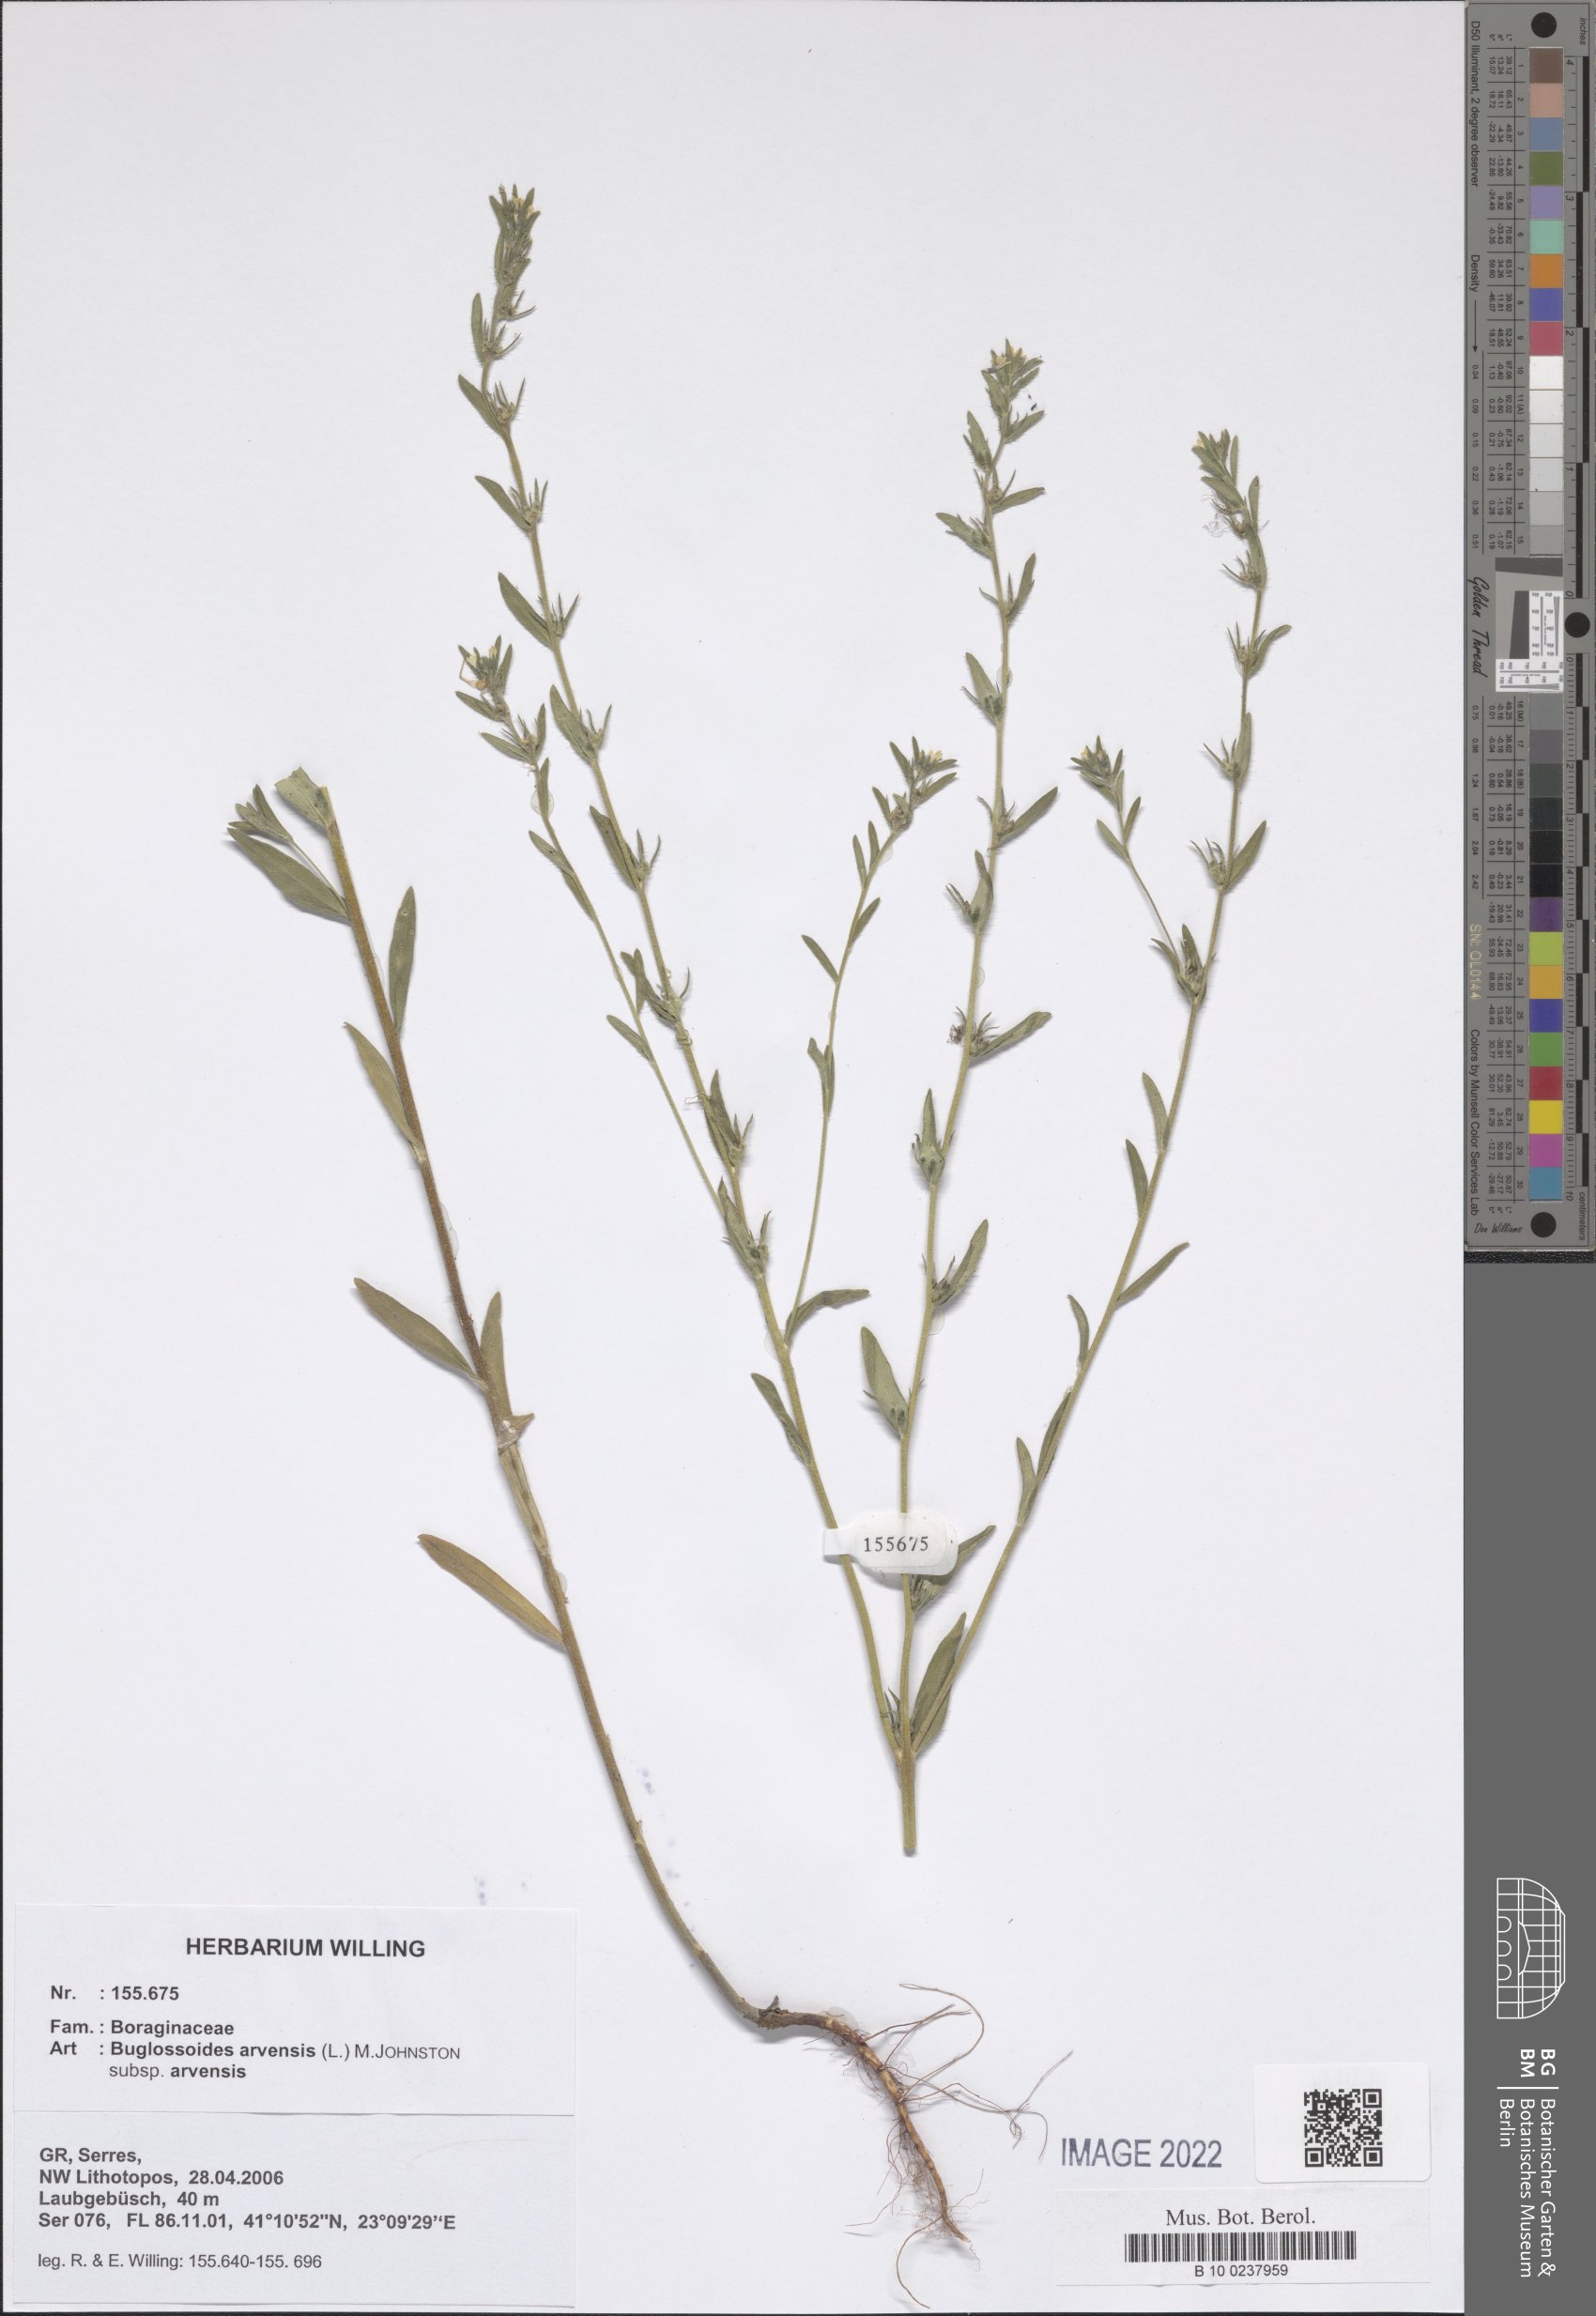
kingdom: Plantae
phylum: Tracheophyta
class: Magnoliopsida
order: Boraginales
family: Boraginaceae
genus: Buglossoides
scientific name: Buglossoides arvensis
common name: Corn gromwell
